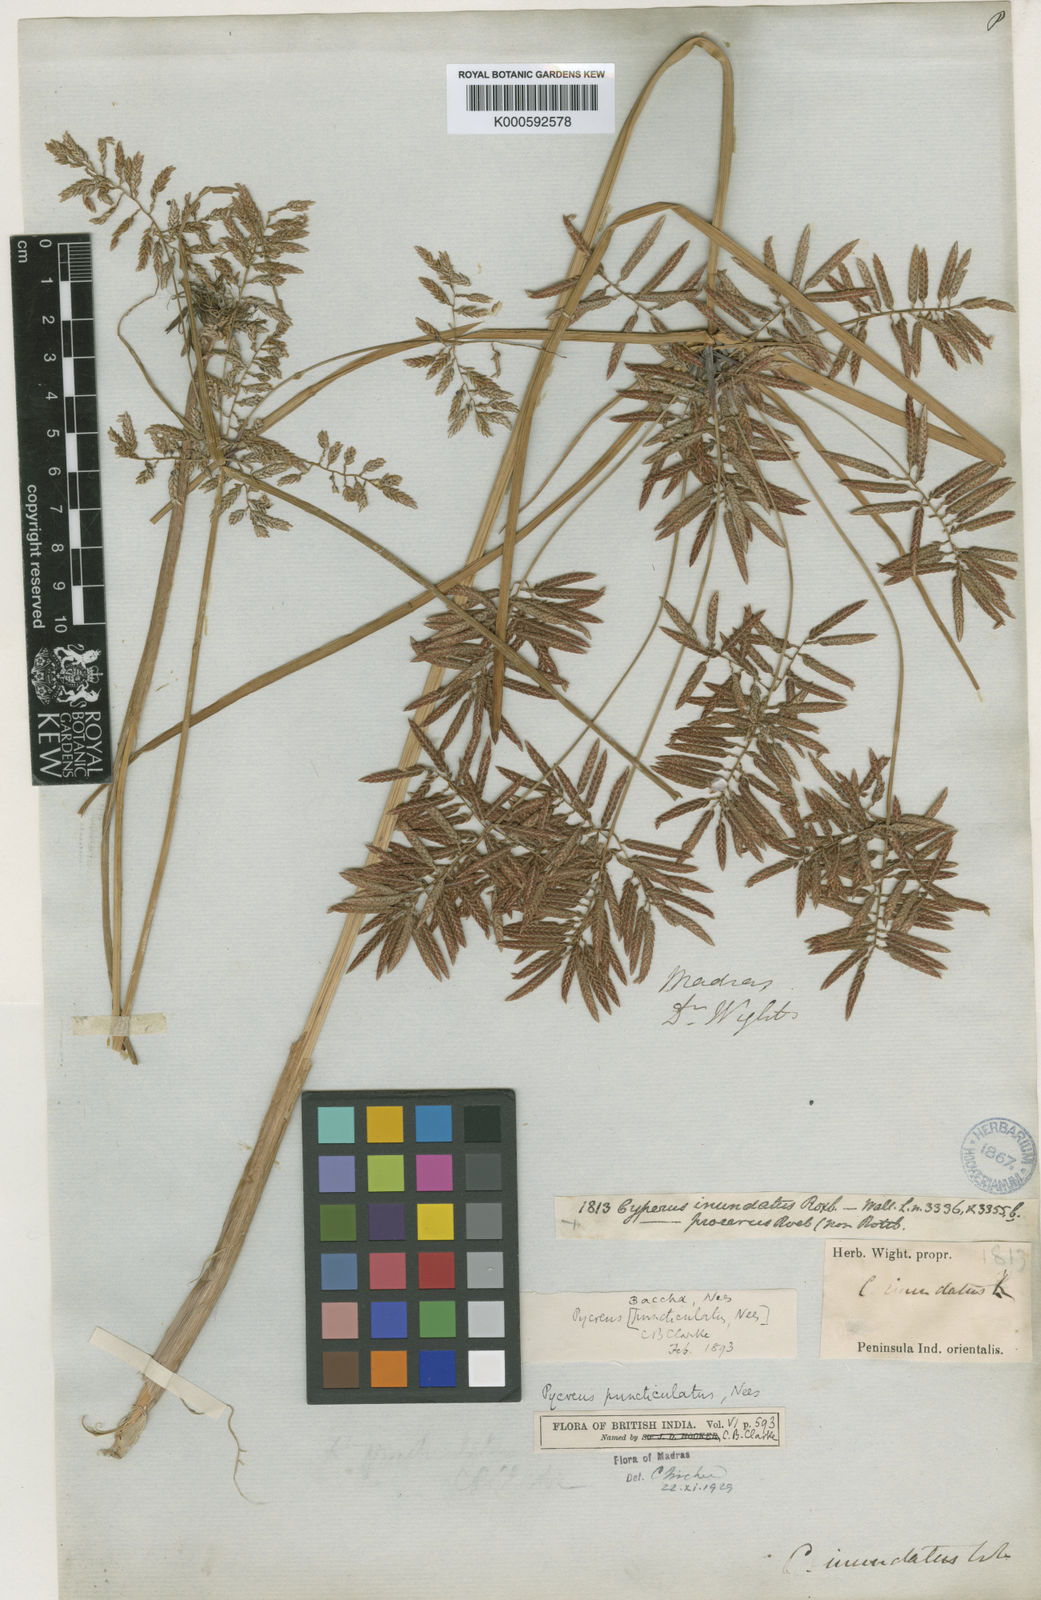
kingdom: Plantae
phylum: Tracheophyta
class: Liliopsida
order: Poales
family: Cyperaceae
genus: Cyperus
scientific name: Cyperus puncticulatus
